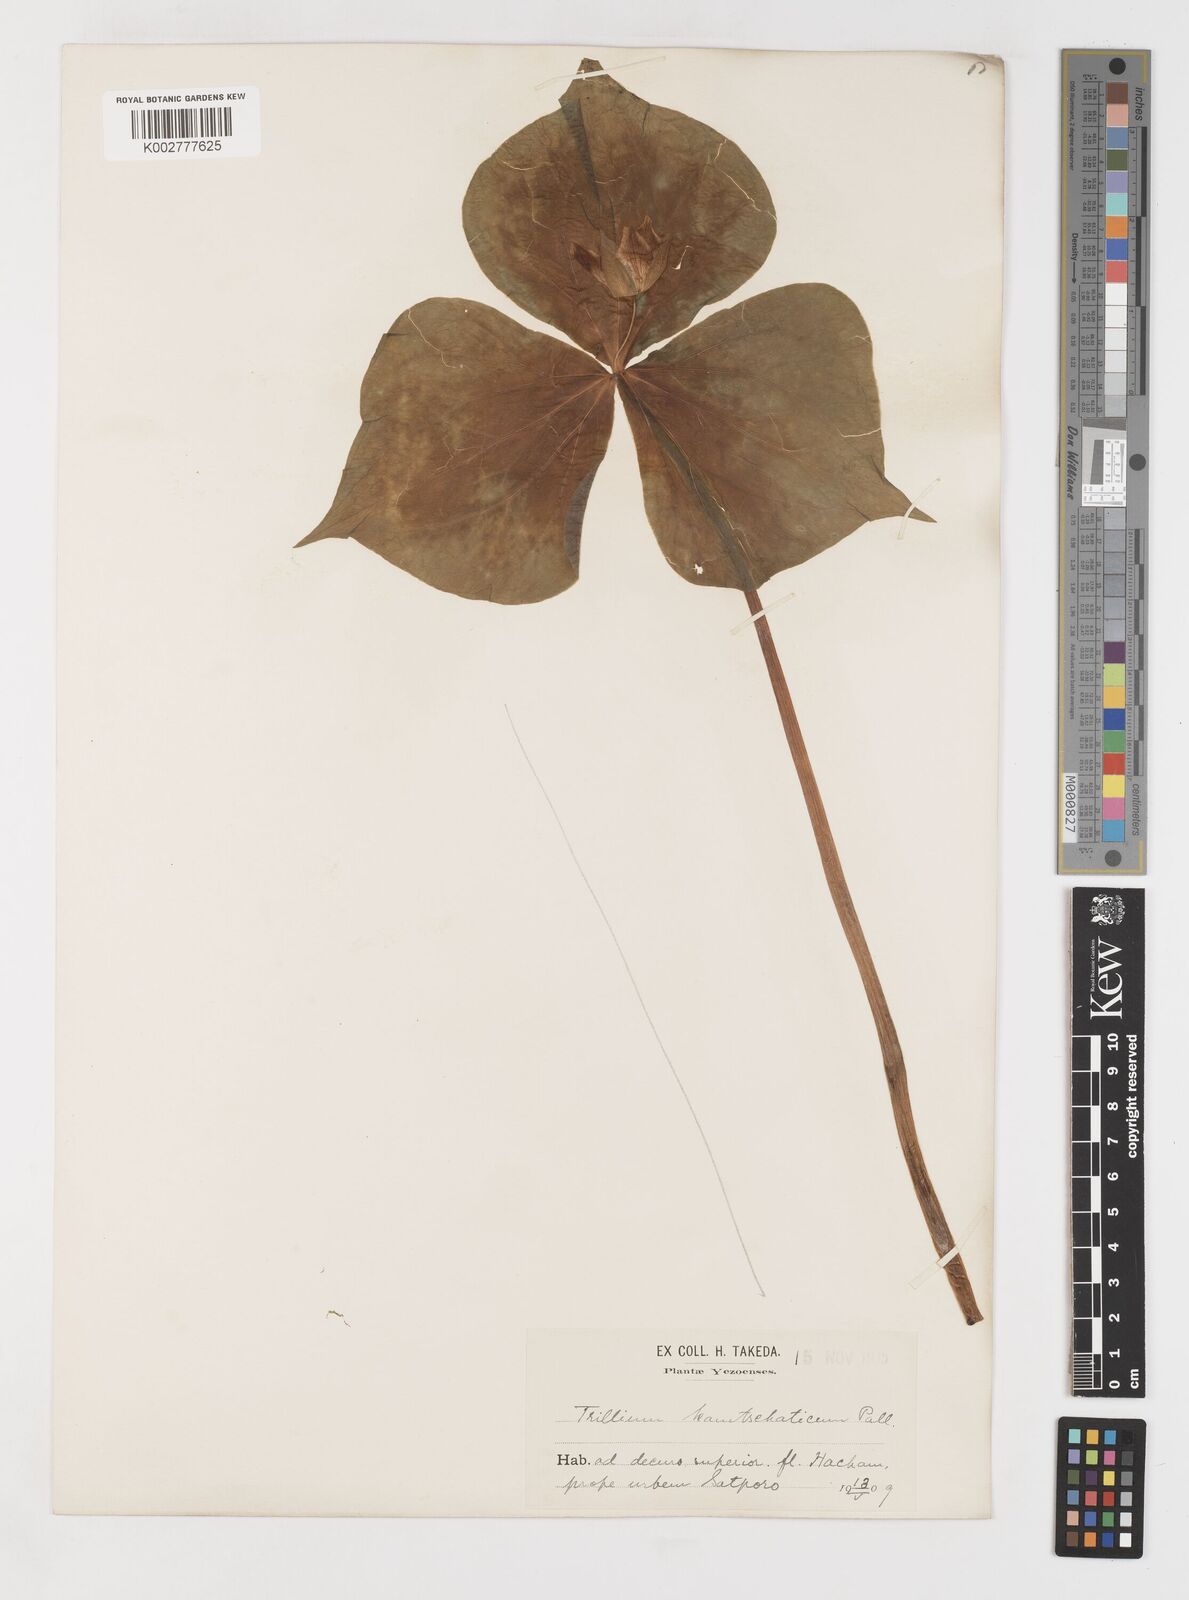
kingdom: Plantae
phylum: Tracheophyta
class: Liliopsida
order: Liliales
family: Melanthiaceae
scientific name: Melanthiaceae
